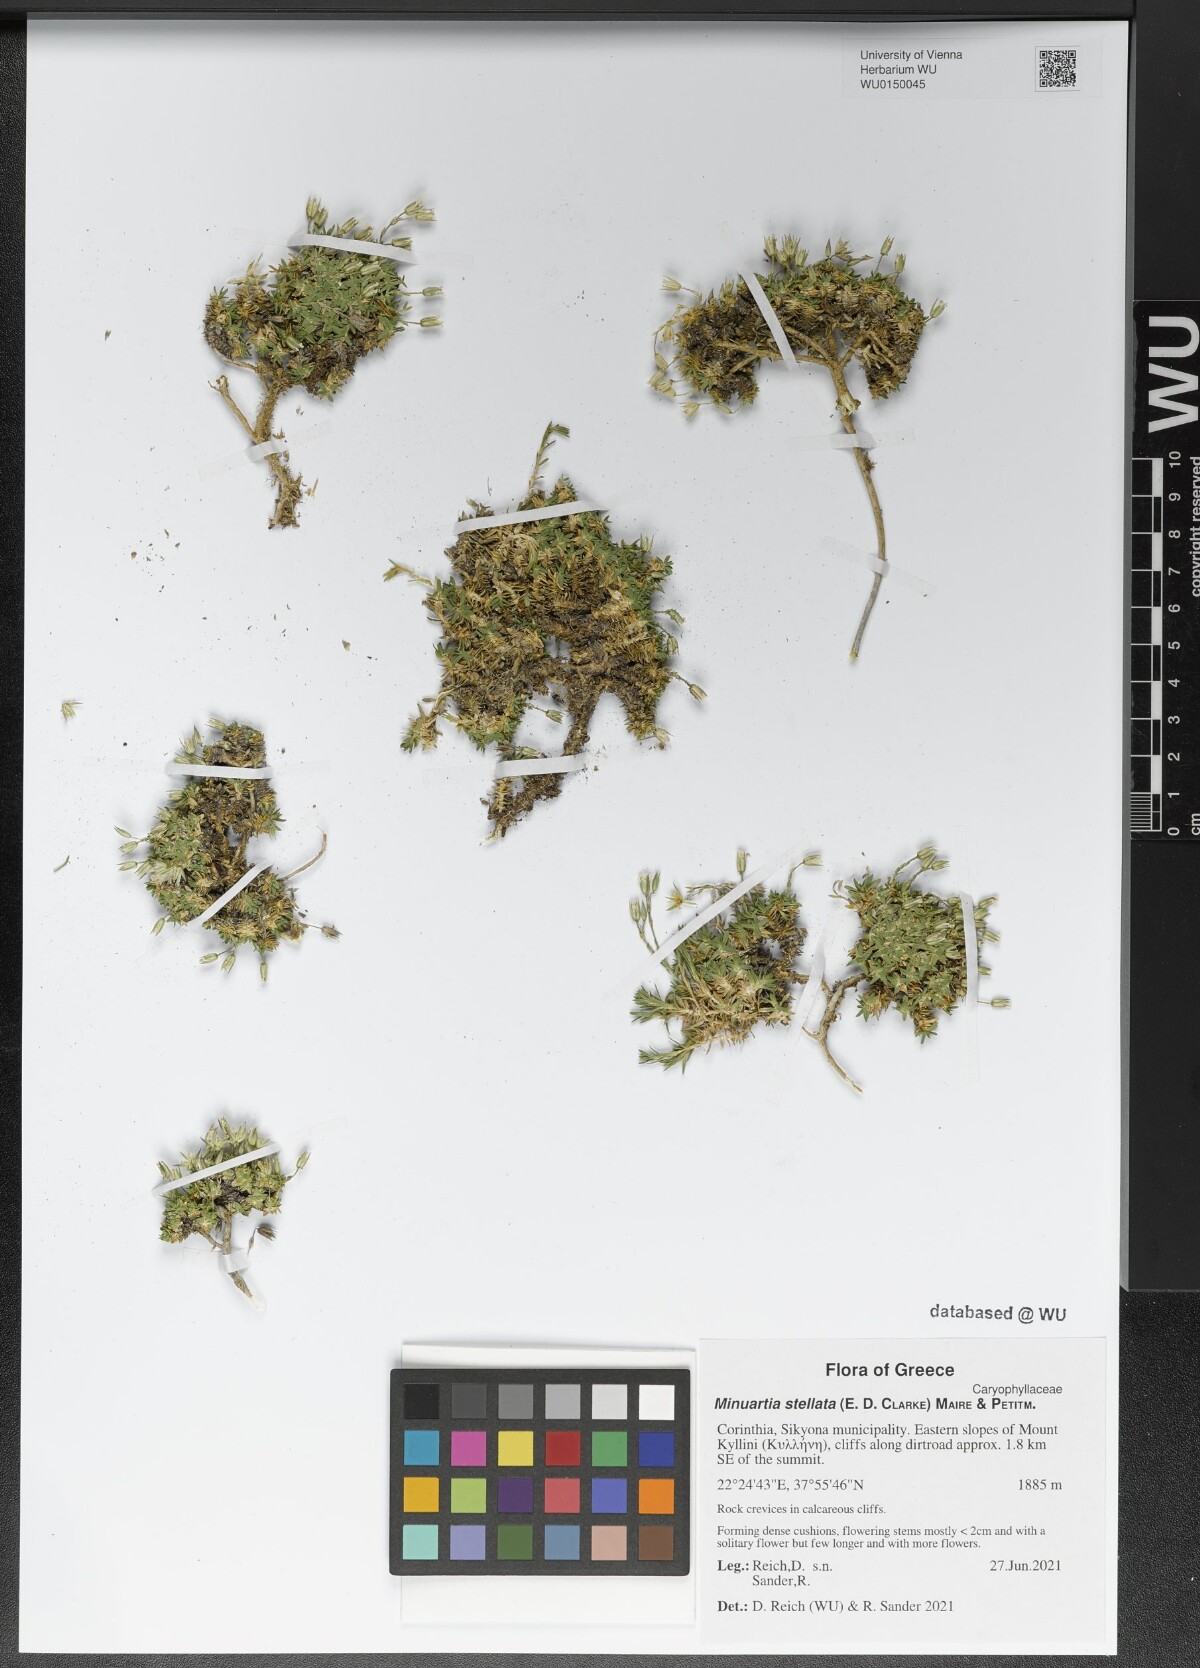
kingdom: Plantae
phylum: Tracheophyta
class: Magnoliopsida
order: Caryophyllales
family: Caryophyllaceae
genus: Mcneillia
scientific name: Mcneillia stellata
